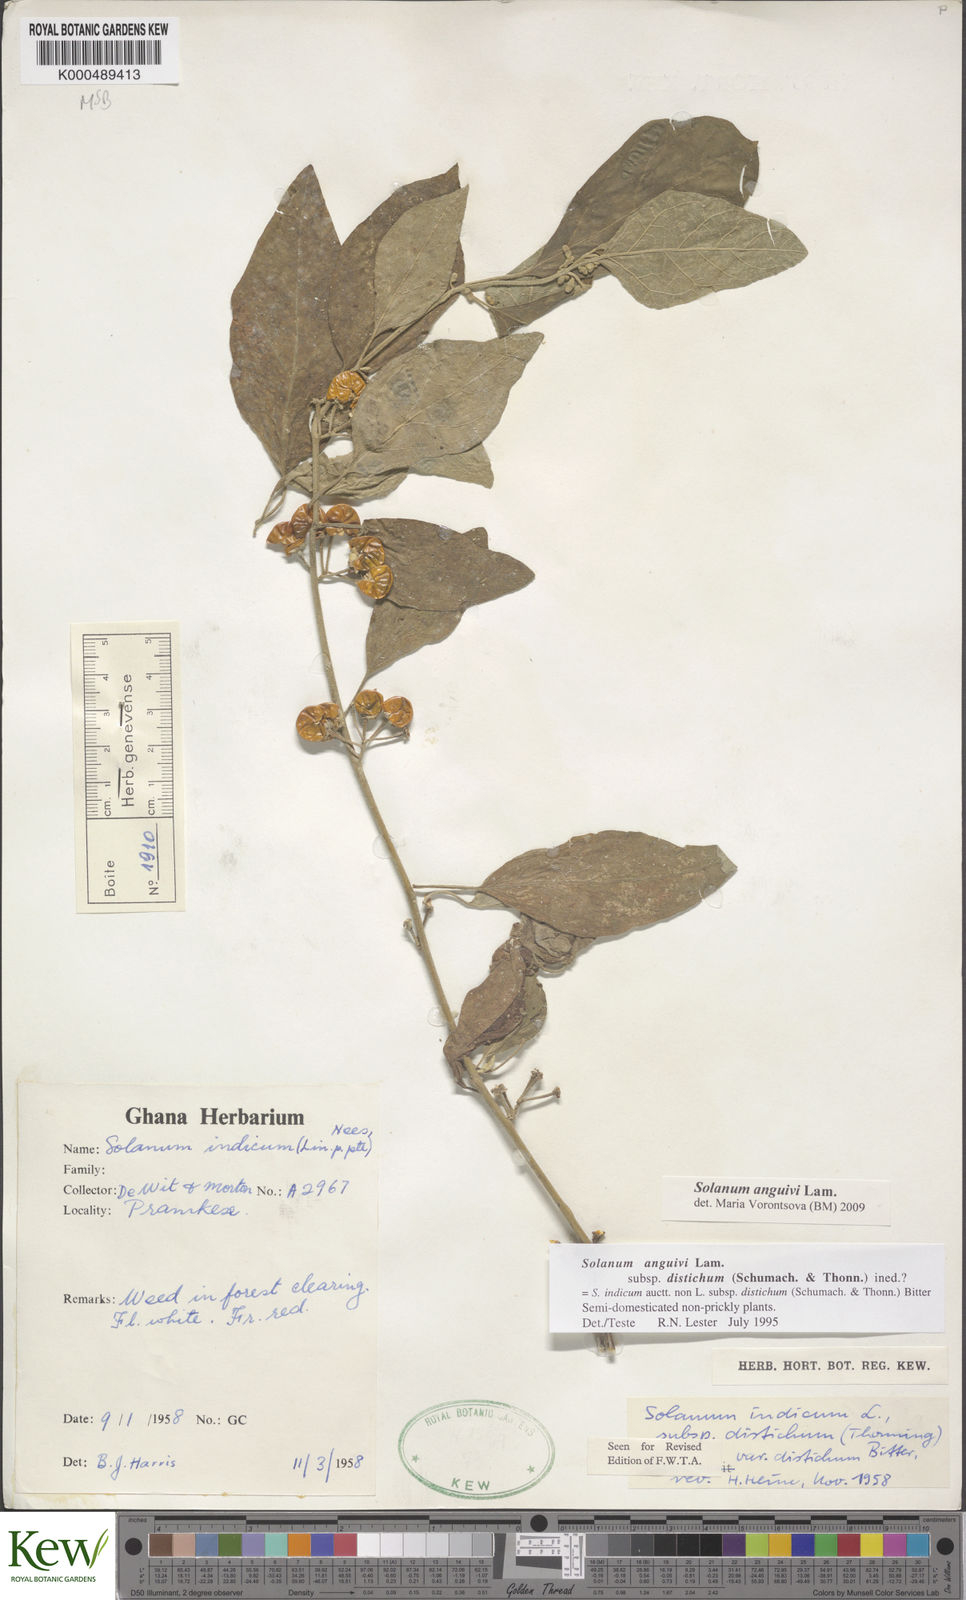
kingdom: Plantae
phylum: Tracheophyta
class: Magnoliopsida
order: Solanales
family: Solanaceae
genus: Solanum
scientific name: Solanum anguivi
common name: Forest bitterberry
